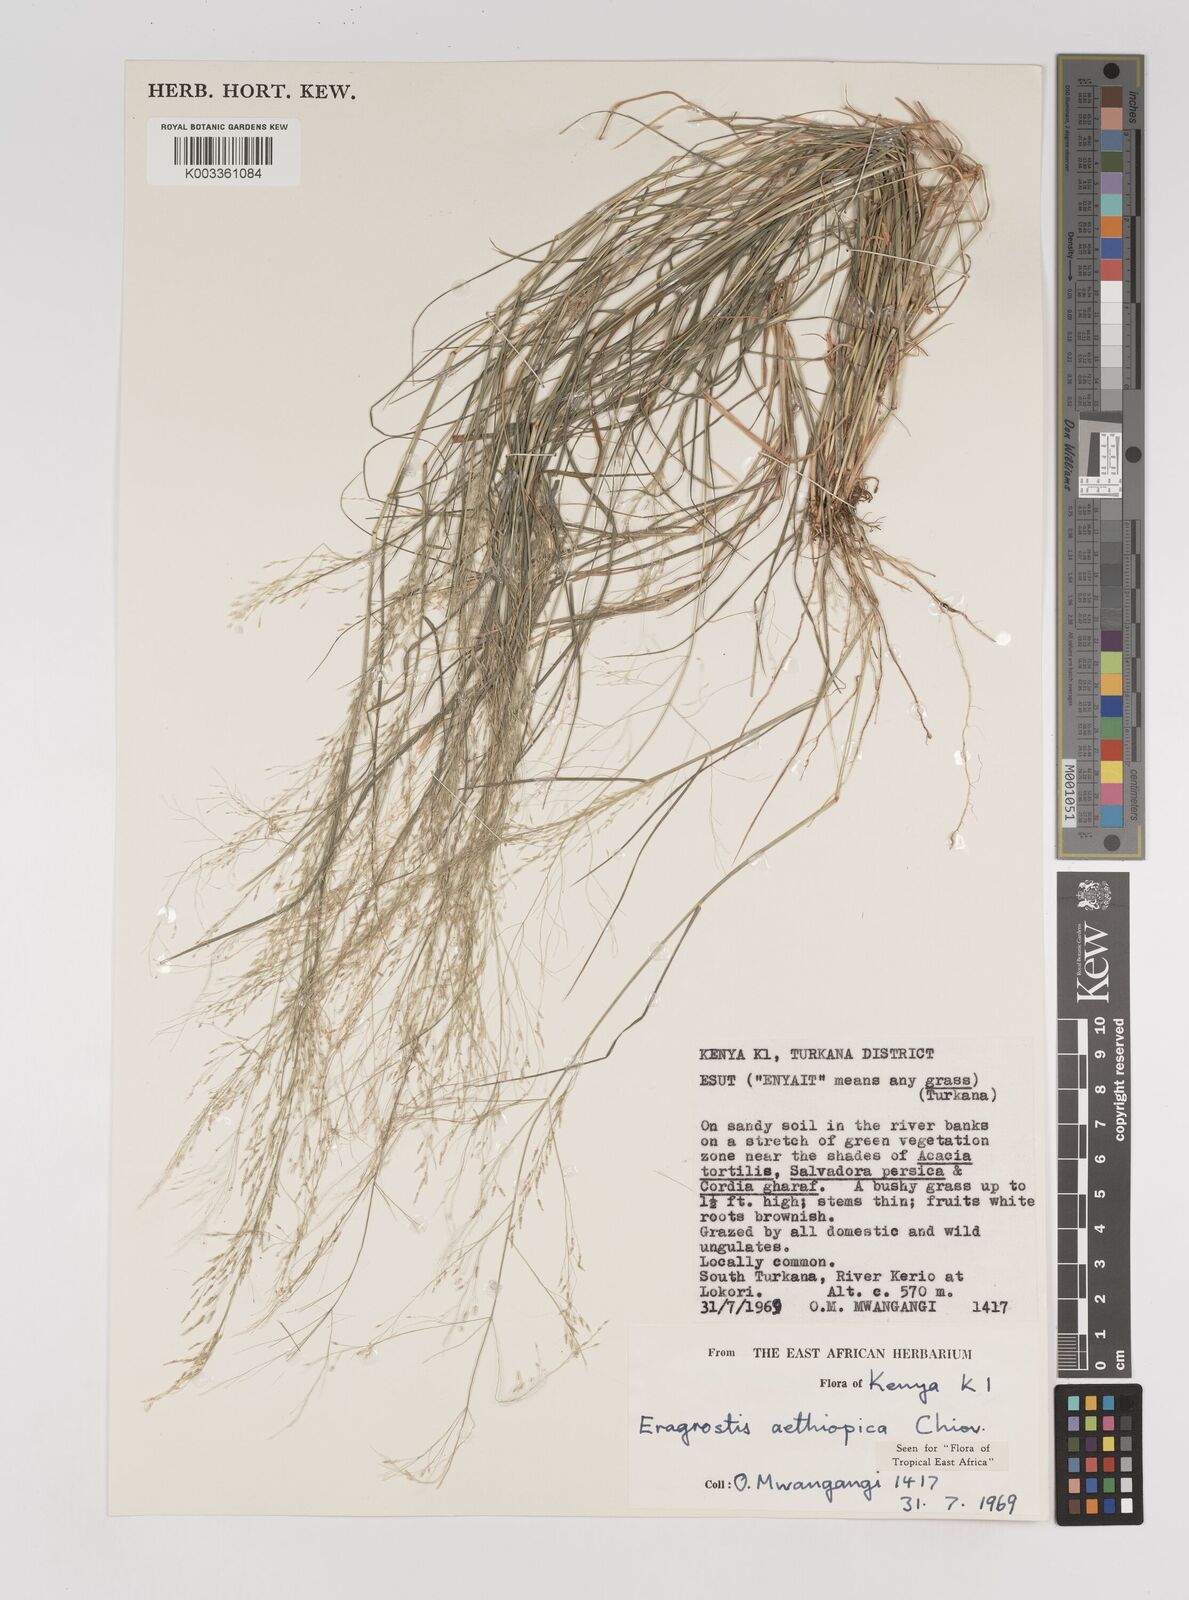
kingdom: Plantae
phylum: Tracheophyta
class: Liliopsida
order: Poales
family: Poaceae
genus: Eragrostis
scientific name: Eragrostis aethiopica
